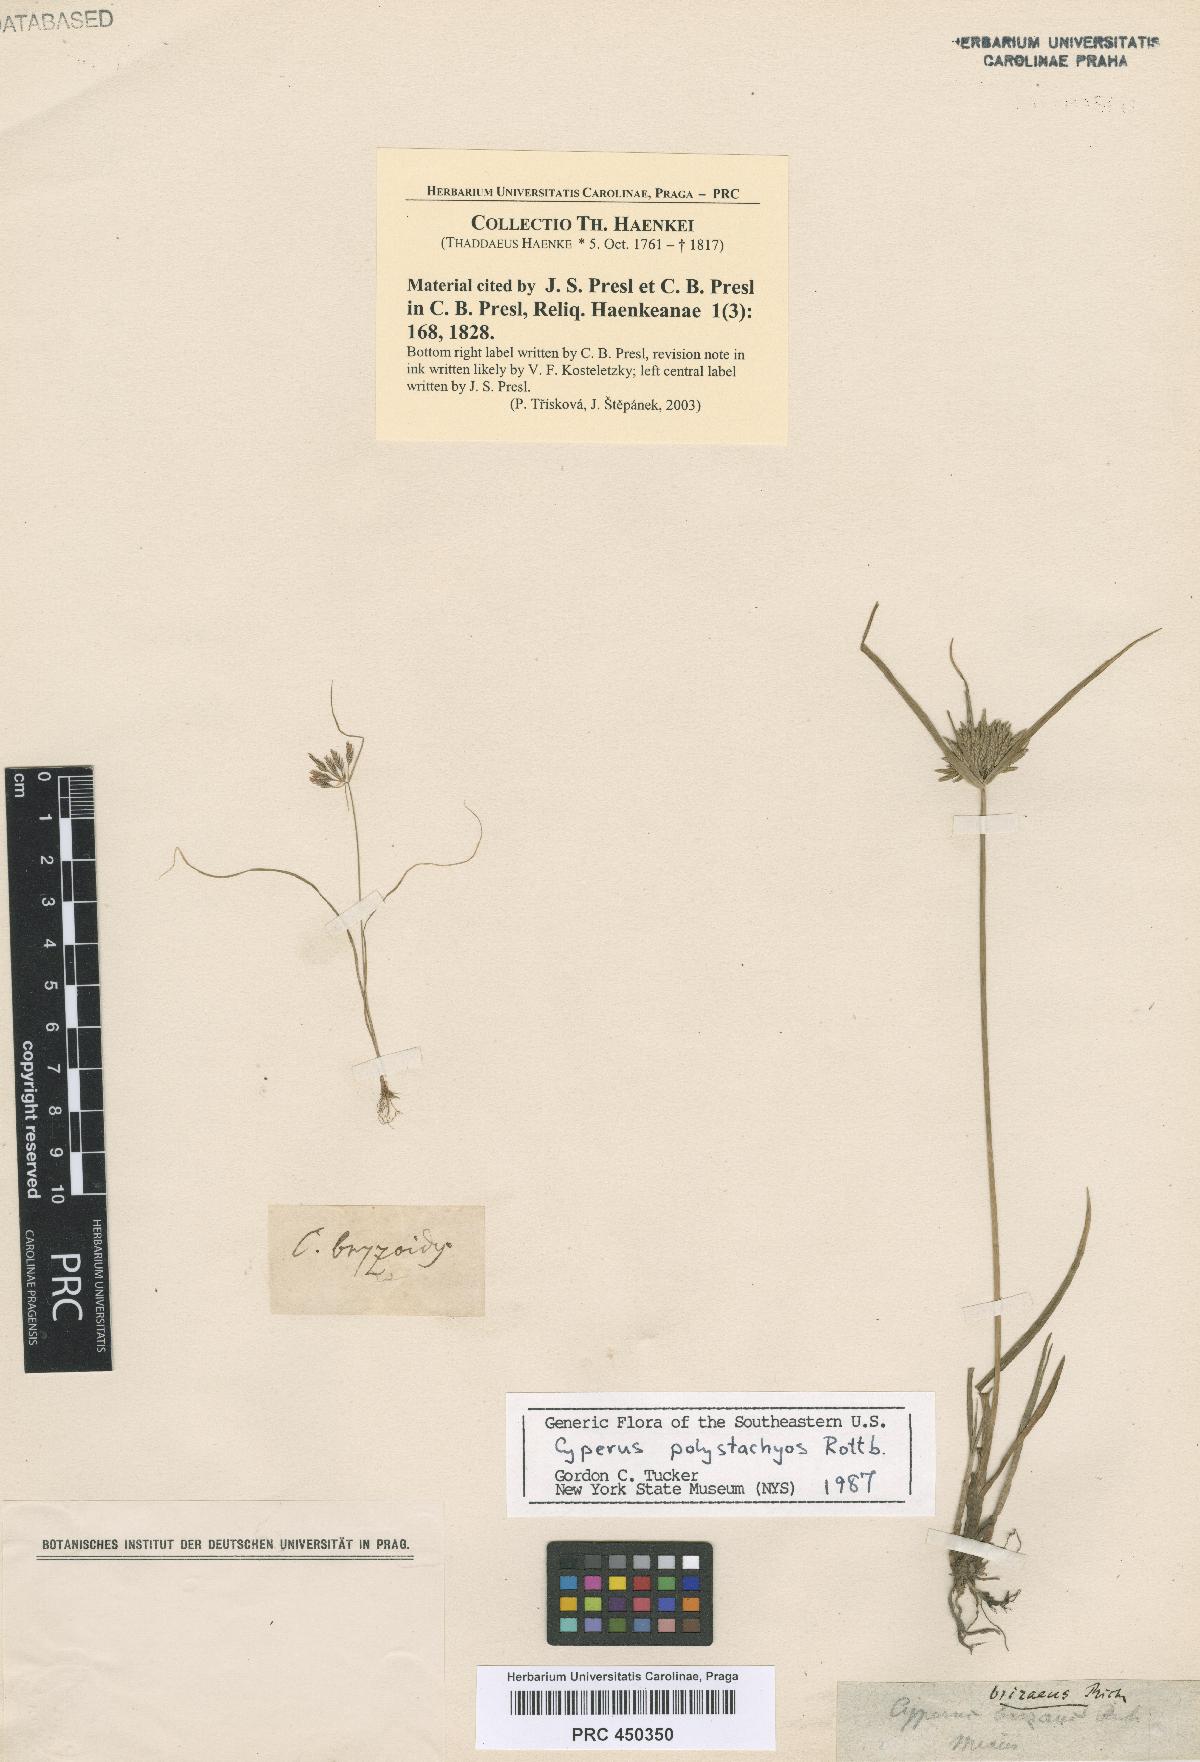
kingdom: Plantae
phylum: Tracheophyta
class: Liliopsida
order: Poales
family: Cyperaceae
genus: Cyperus
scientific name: Cyperus polystachyos
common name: Bunchy flat sedge
